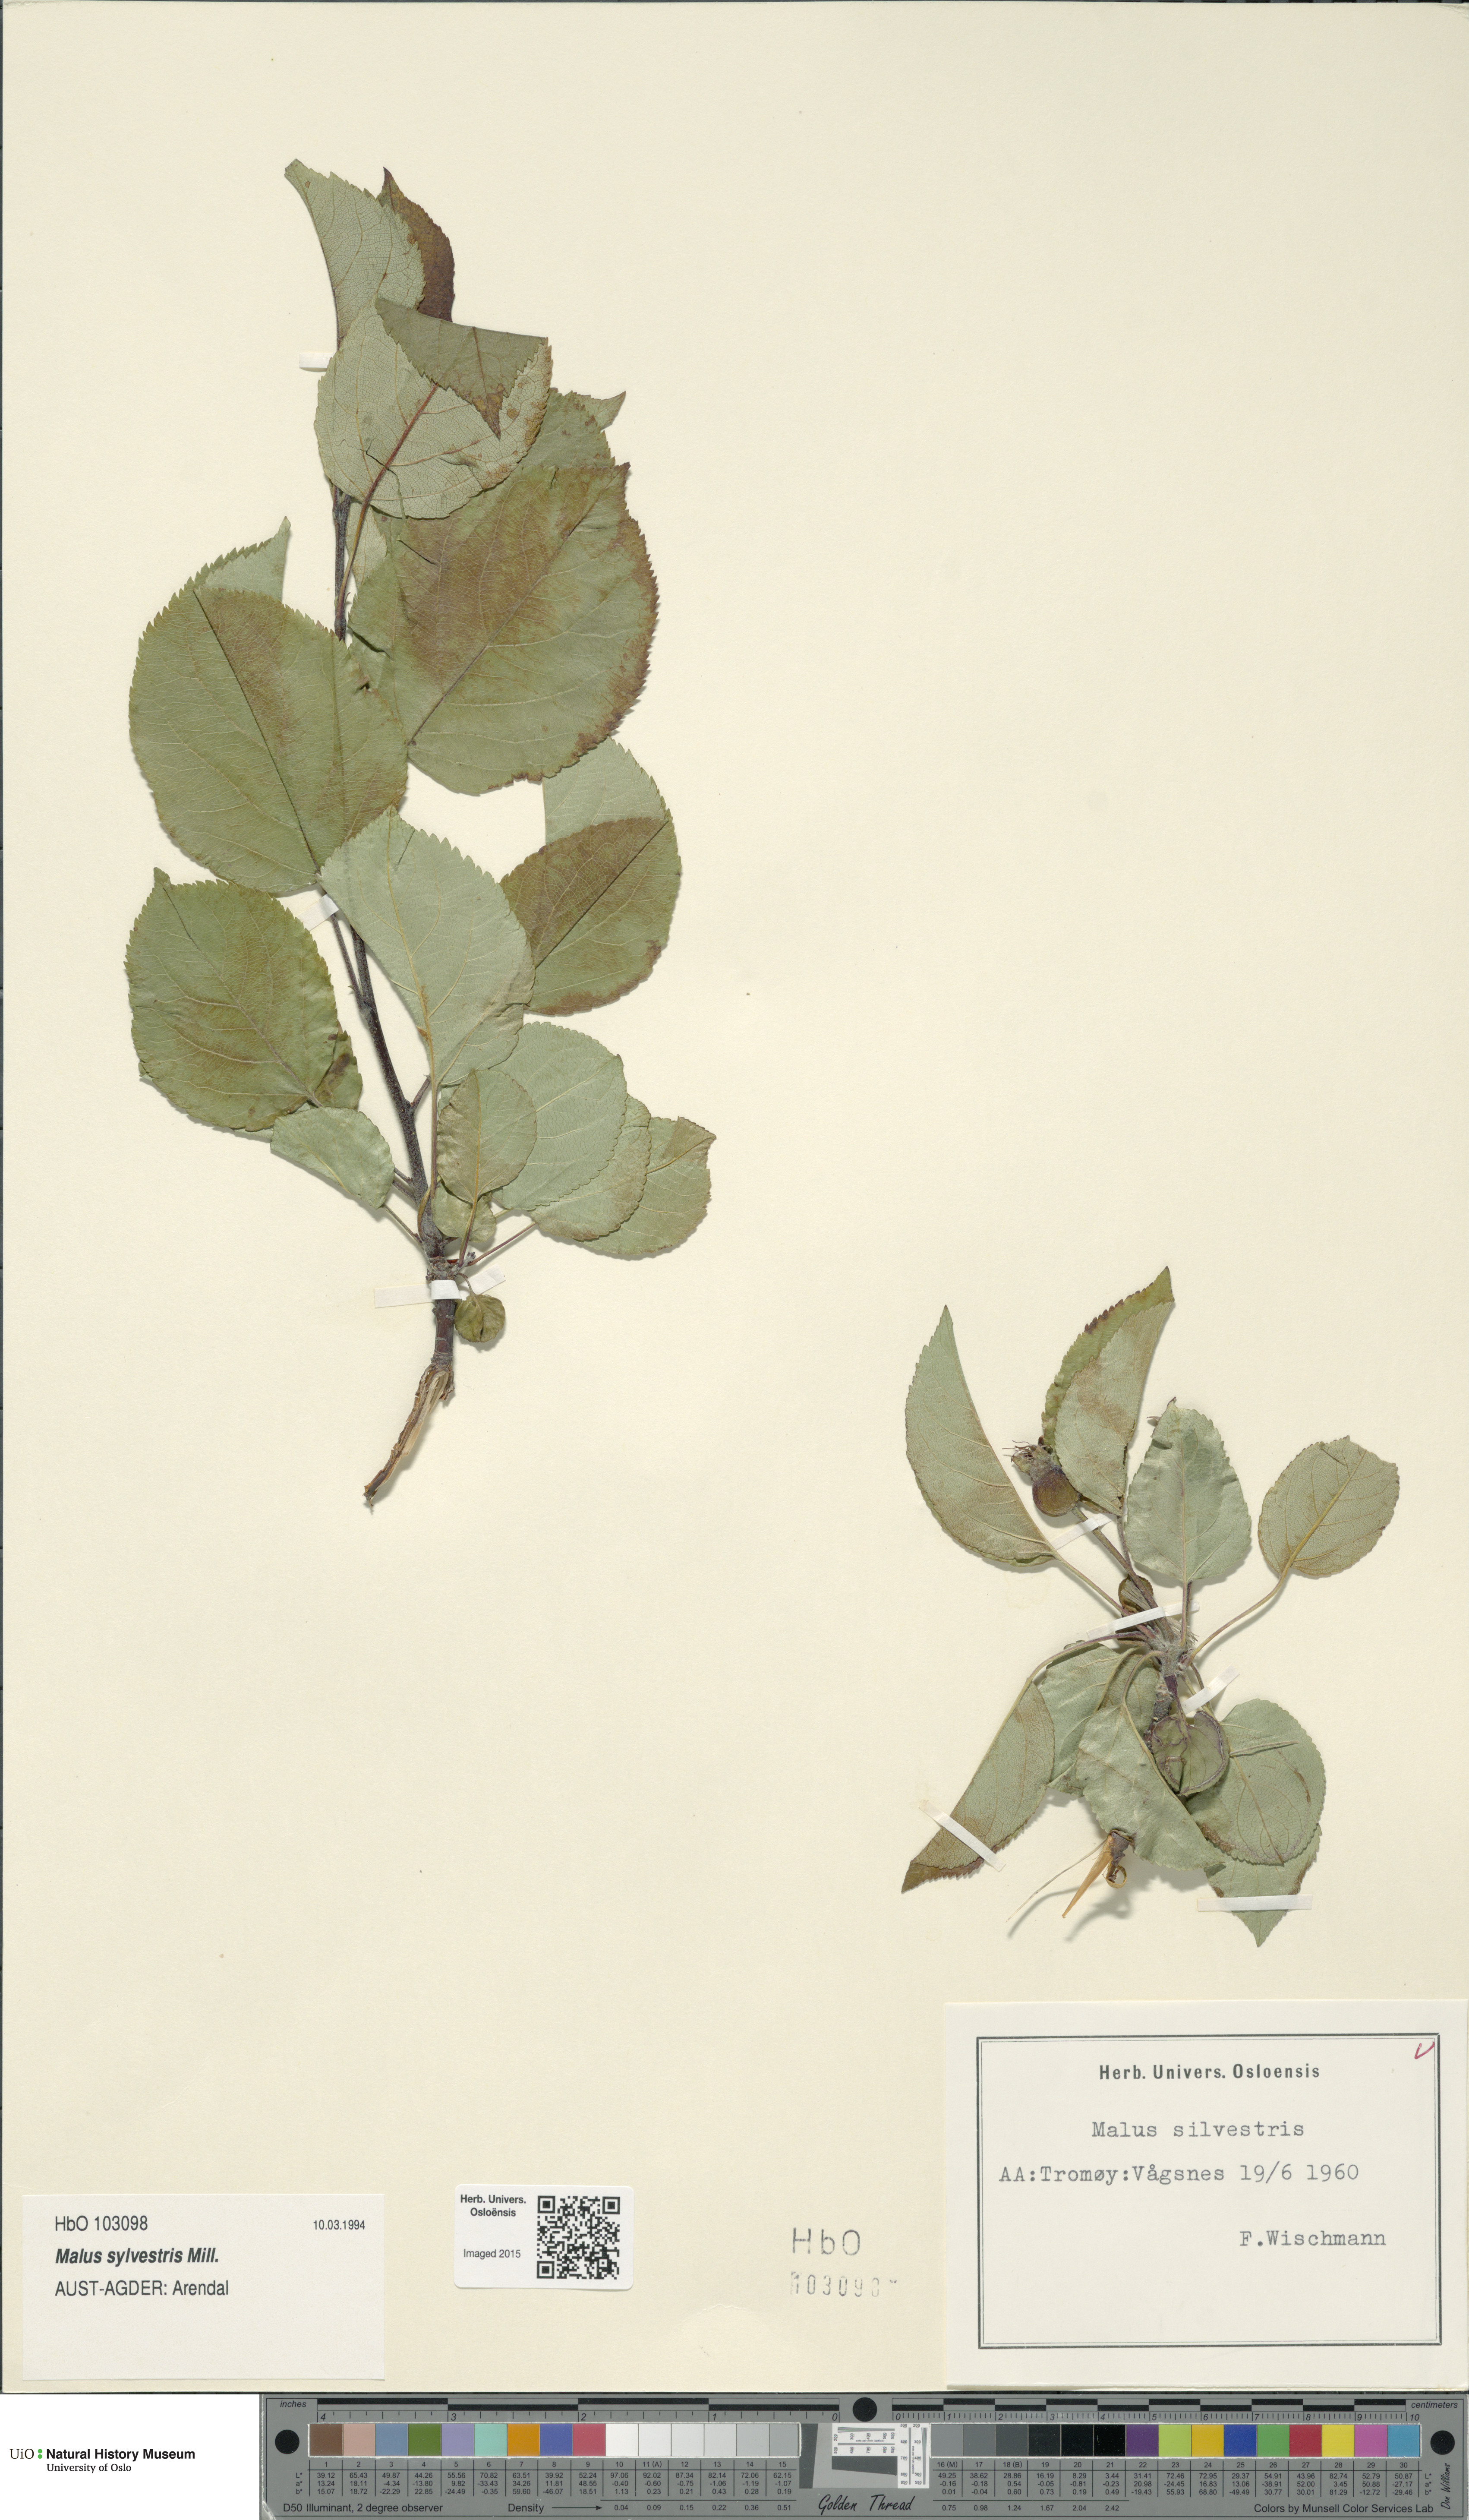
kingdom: Plantae
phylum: Tracheophyta
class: Magnoliopsida
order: Rosales
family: Rosaceae
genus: Malus
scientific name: Malus sylvestris
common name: Crab apple
